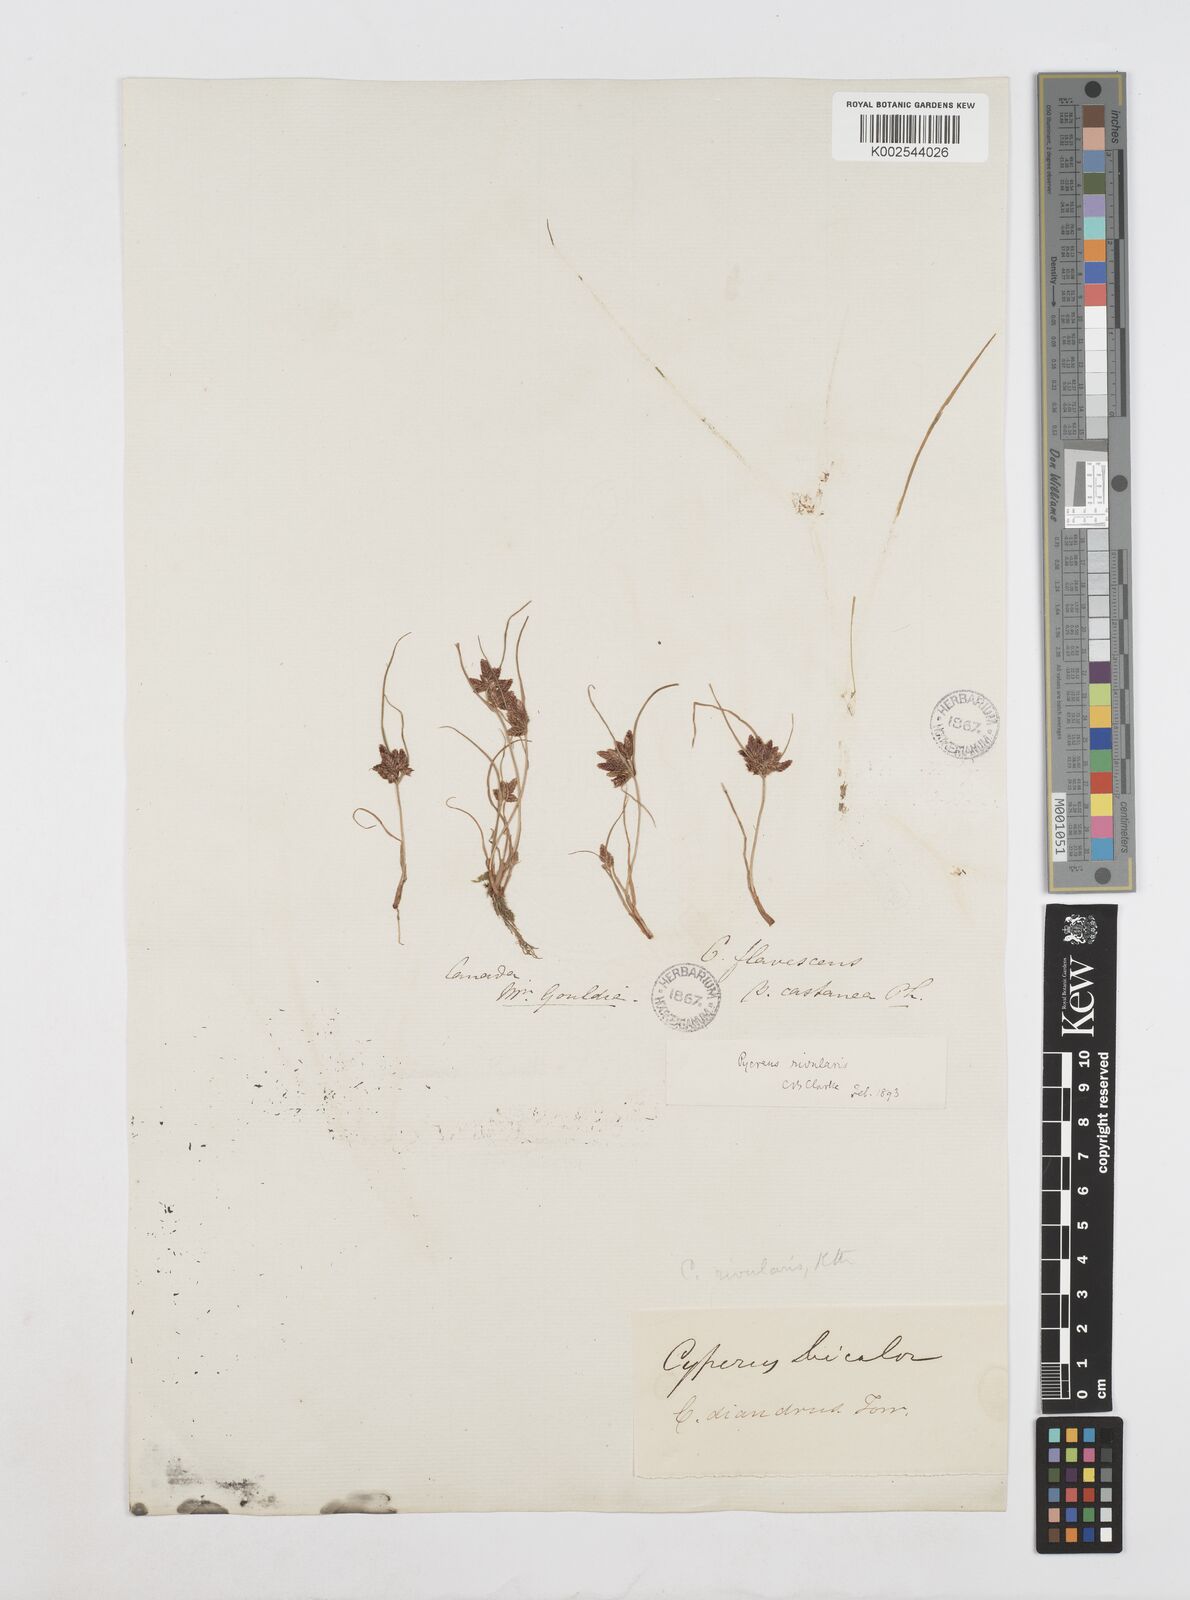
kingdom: Plantae
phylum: Tracheophyta
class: Liliopsida
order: Poales
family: Cyperaceae
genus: Cyperus
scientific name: Cyperus bipartitus
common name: Brook flatsedge
